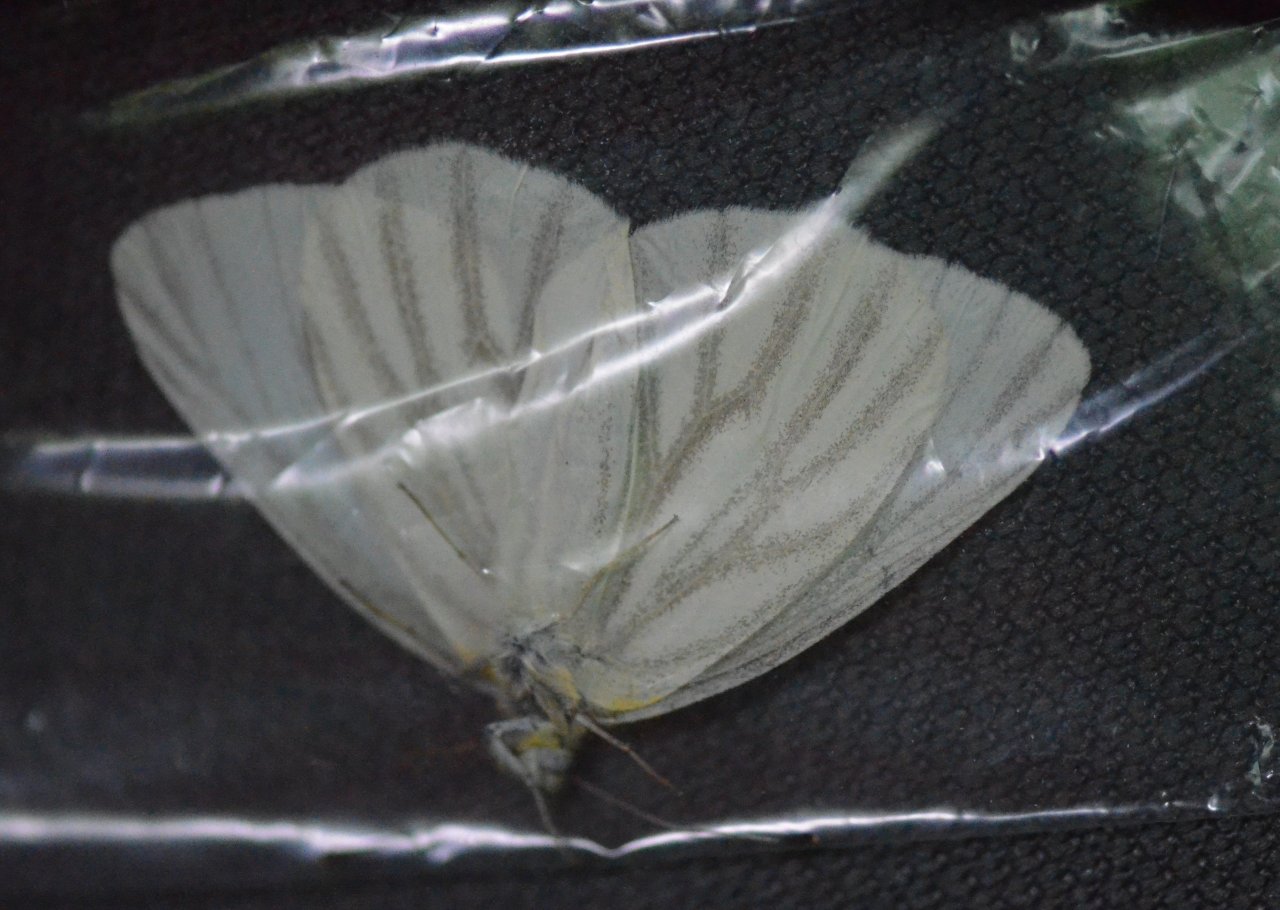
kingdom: Animalia
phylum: Arthropoda
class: Insecta
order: Lepidoptera
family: Pieridae
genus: Pieris
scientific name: Pieris virginiensis
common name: West Virginia White
